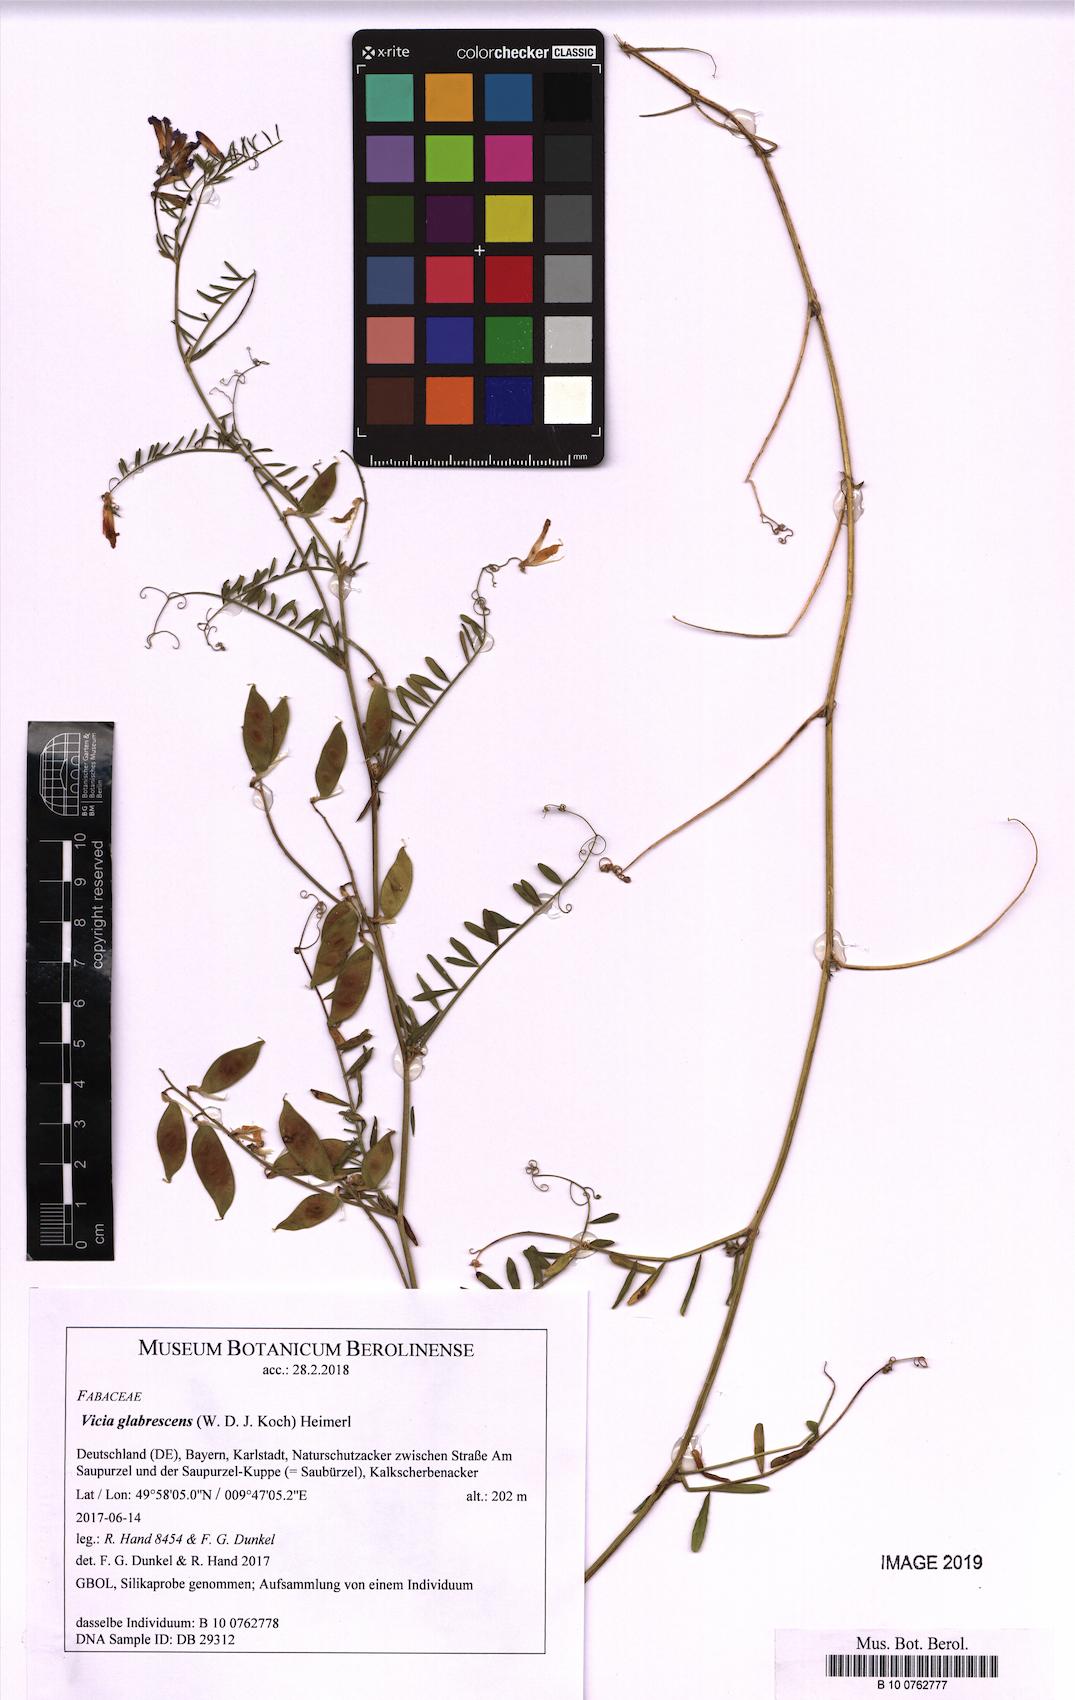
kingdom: Plantae
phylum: Tracheophyta
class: Magnoliopsida
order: Fabales
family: Fabaceae
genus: Vicia
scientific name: Vicia villosa
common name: Fodder vetch
